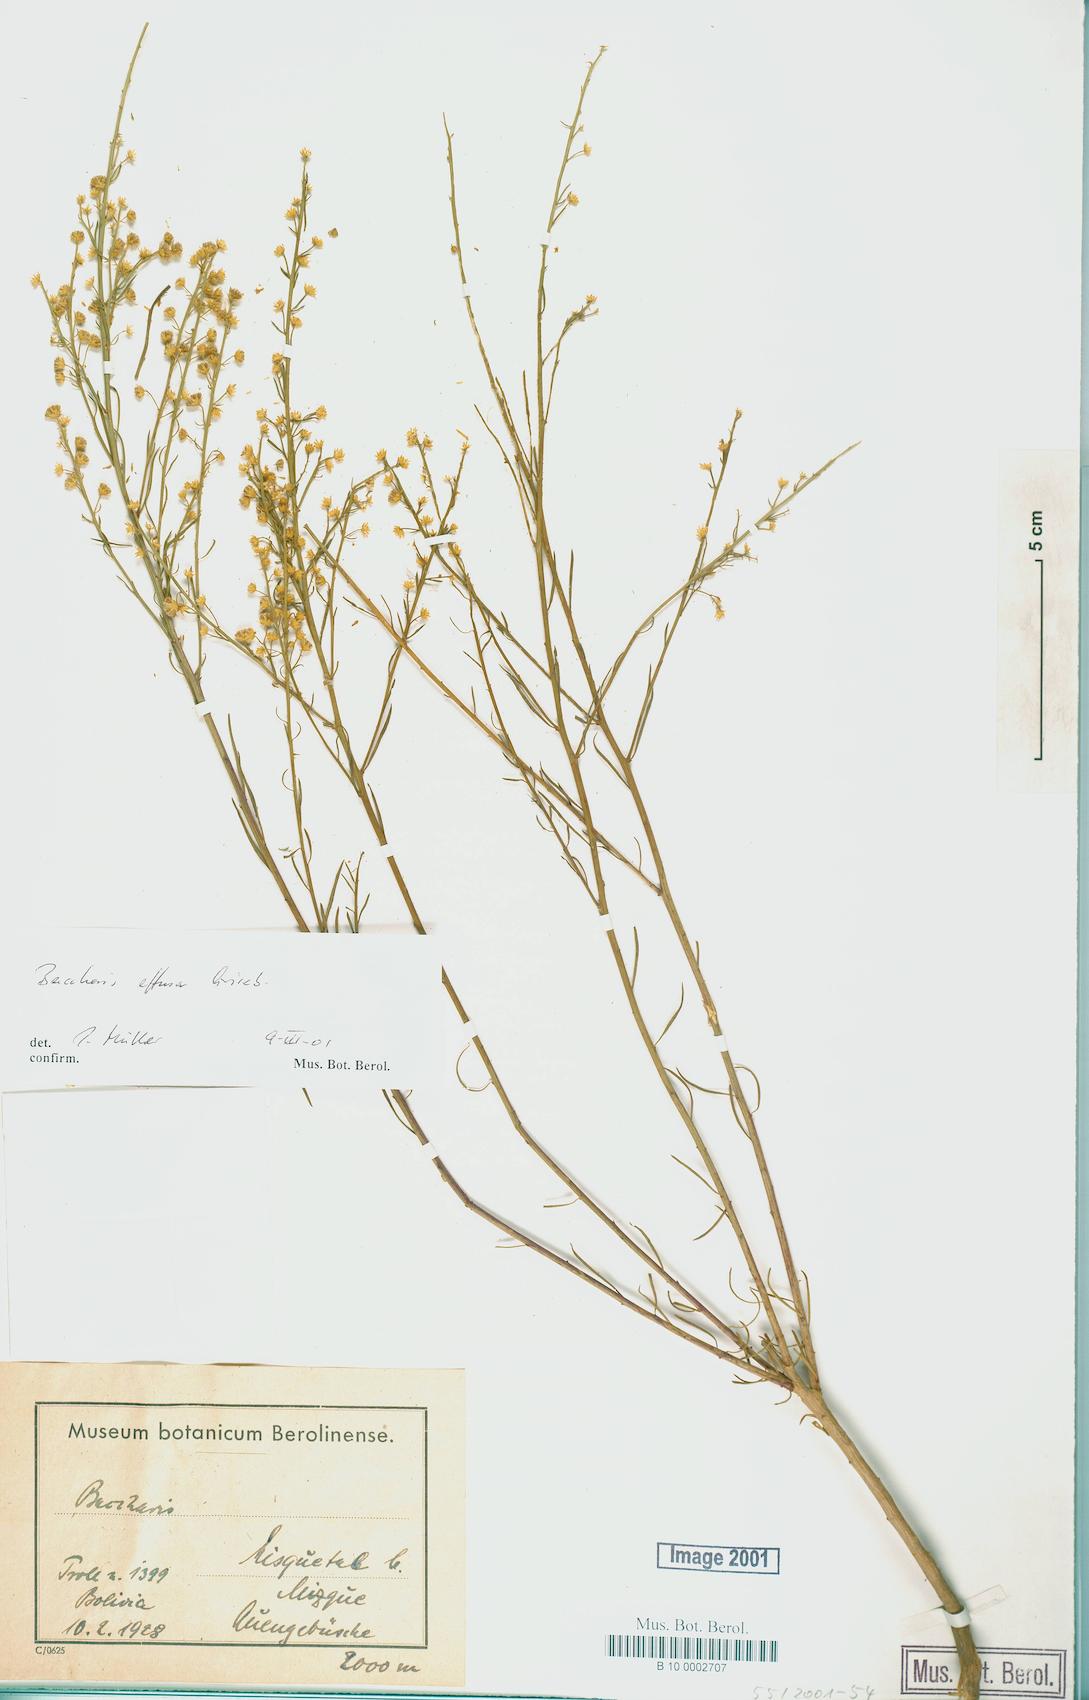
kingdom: Plantae
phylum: Tracheophyta
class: Magnoliopsida
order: Asterales
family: Asteraceae
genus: Baccharis
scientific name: Baccharis effusa
